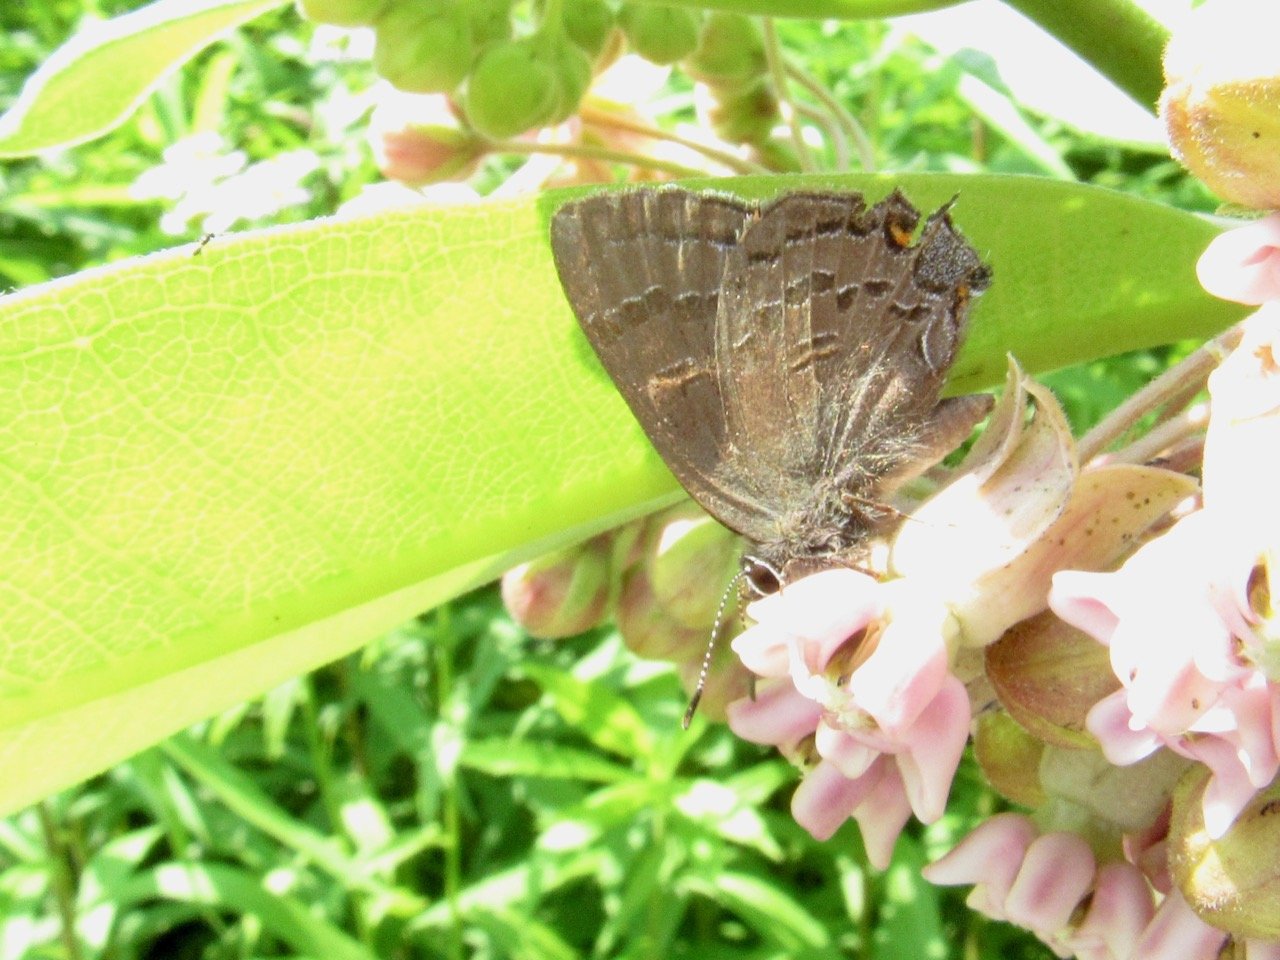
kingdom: Animalia
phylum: Arthropoda
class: Insecta
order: Lepidoptera
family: Lycaenidae
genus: Satyrium
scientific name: Satyrium calanus
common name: Banded Hairstreak
